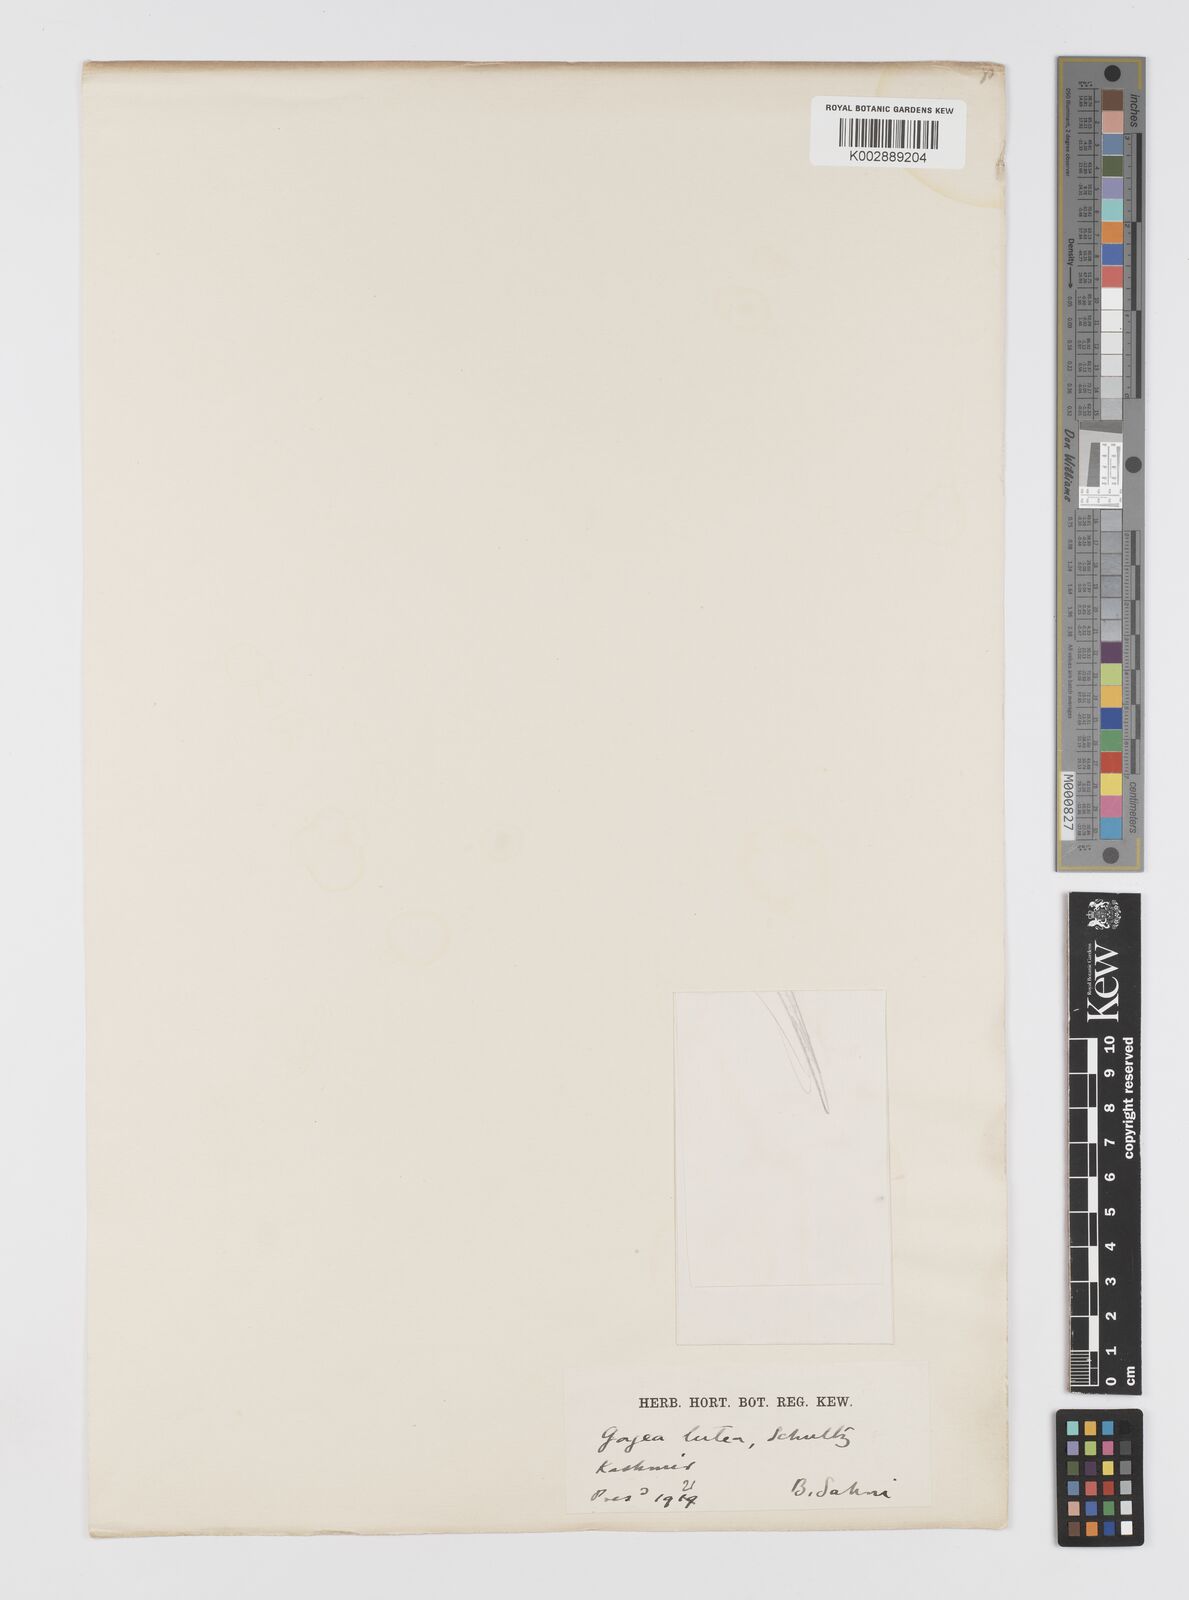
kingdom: Plantae
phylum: Tracheophyta
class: Liliopsida
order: Liliales
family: Liliaceae
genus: Gagea
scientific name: Gagea lutea
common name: Yellow star-of-bethlehem
